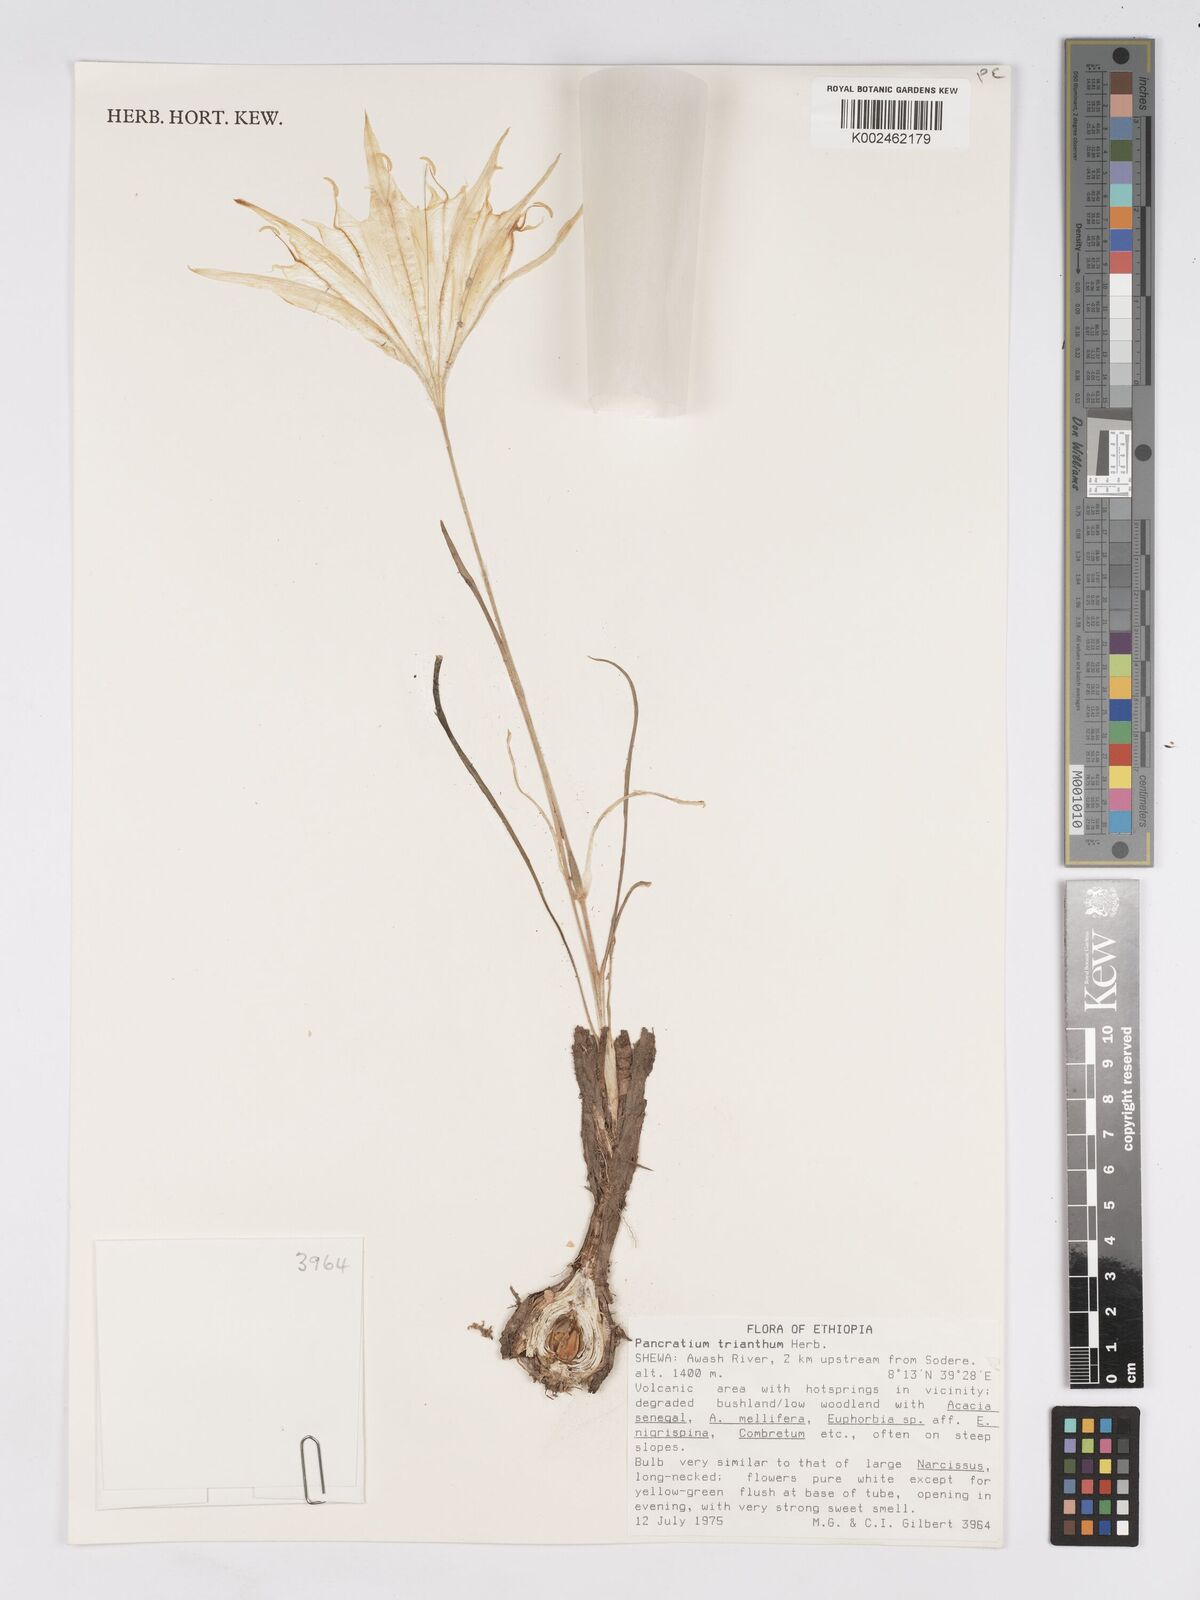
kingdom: Plantae
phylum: Tracheophyta
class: Liliopsida
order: Asparagales
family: Amaryllidaceae
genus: Pancratium
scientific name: Pancratium trianthum
